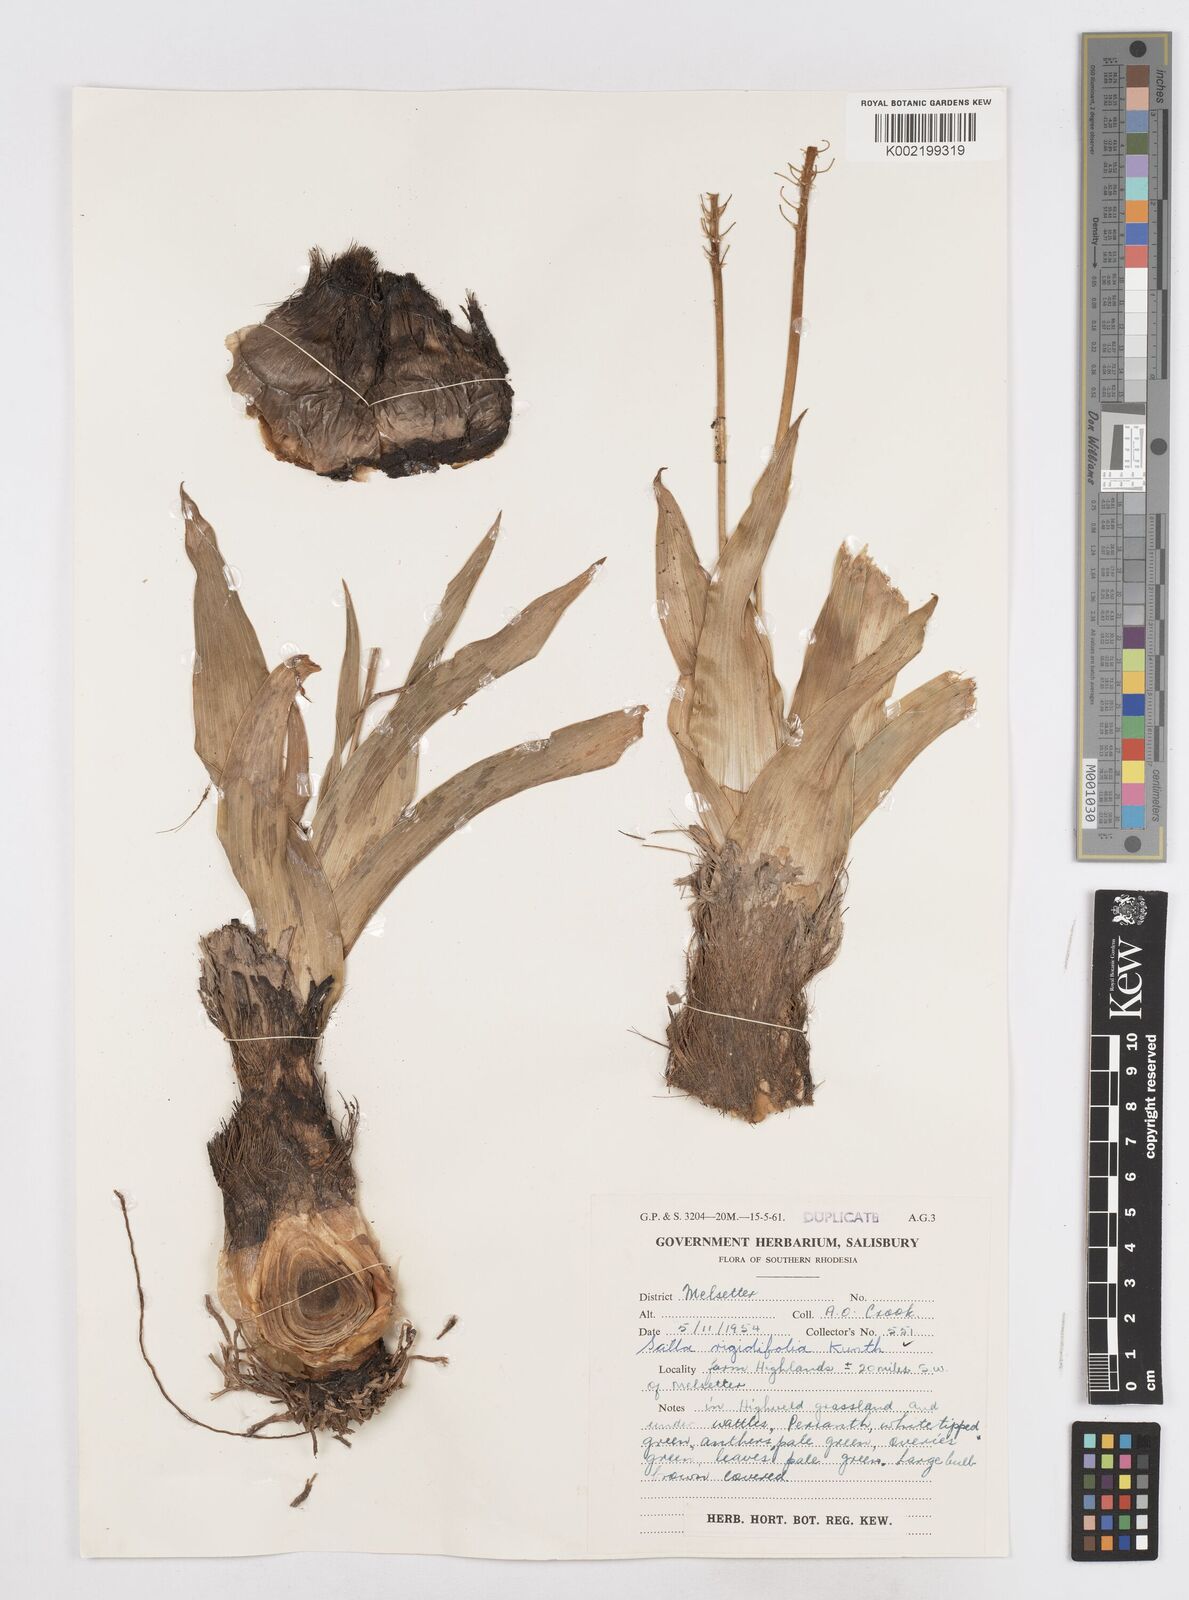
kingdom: Plantae
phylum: Tracheophyta
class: Liliopsida
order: Asparagales
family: Asparagaceae
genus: Schizocarphus
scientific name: Schizocarphus nervosus
